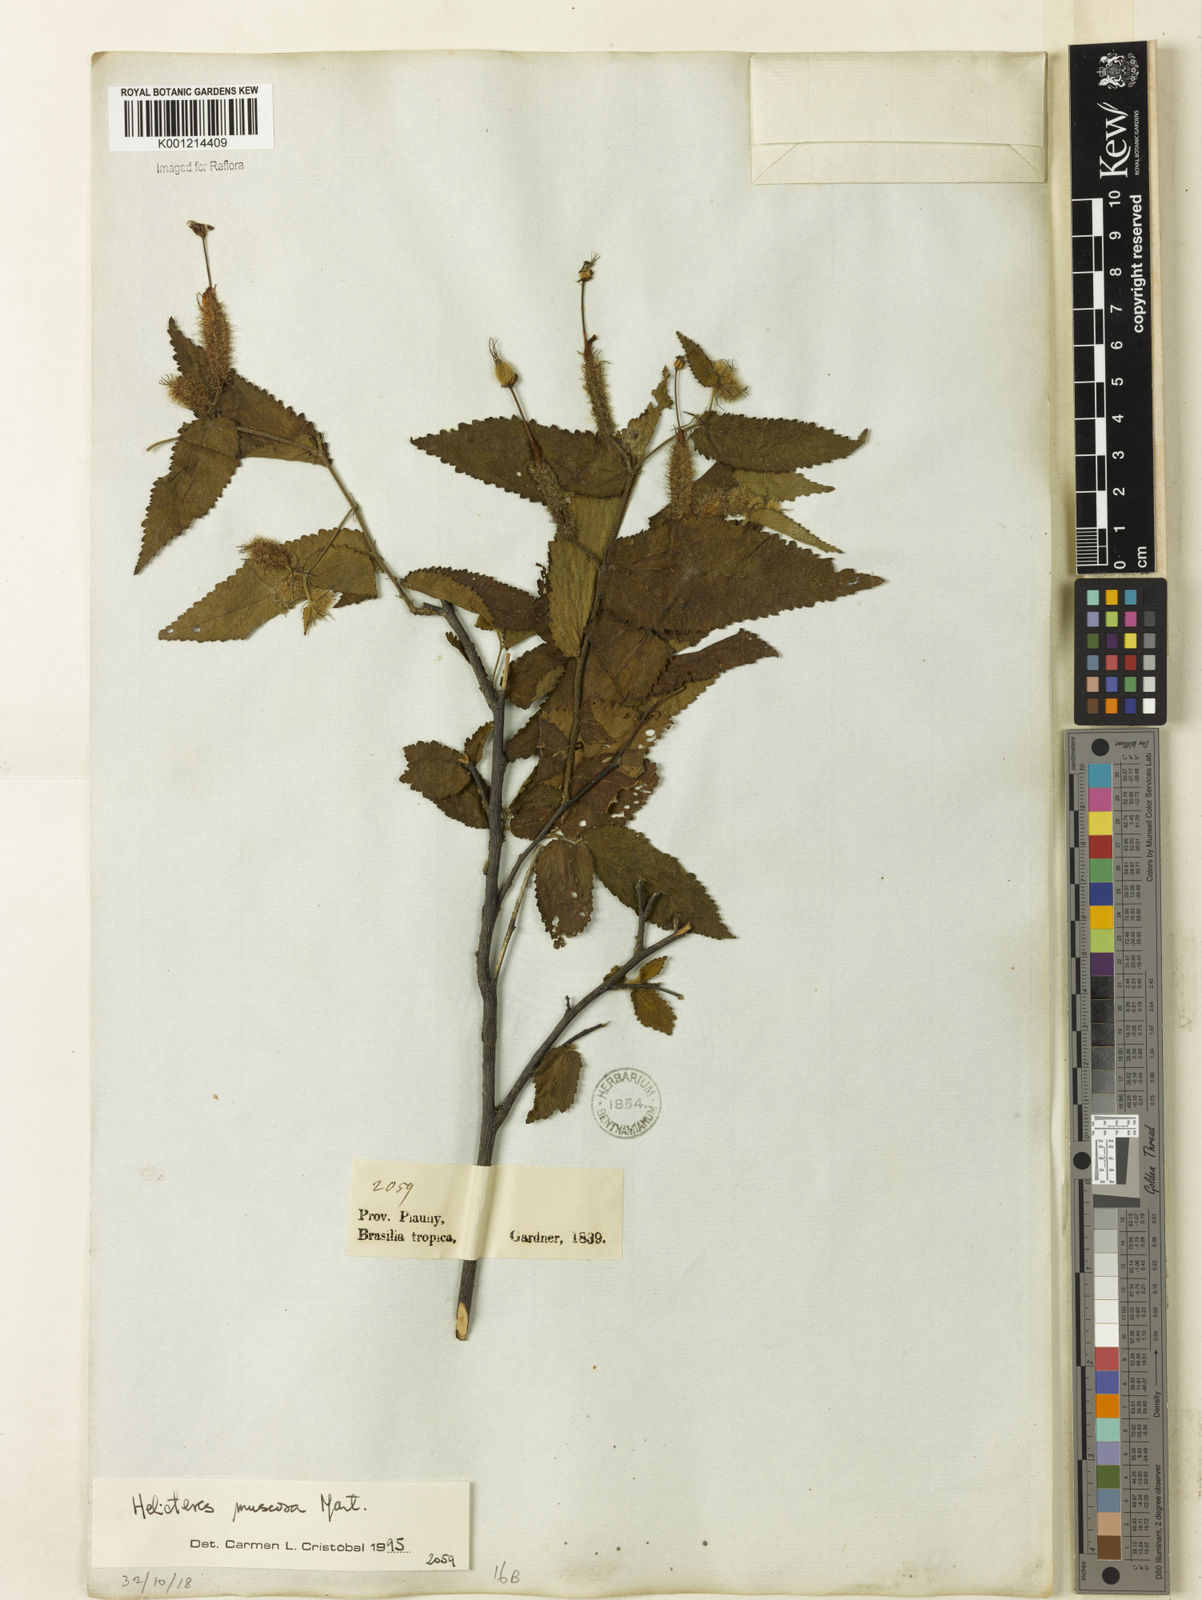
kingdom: Plantae
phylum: Tracheophyta
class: Magnoliopsida
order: Malvales
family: Malvaceae
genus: Helicteres
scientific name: Helicteres muscosa
